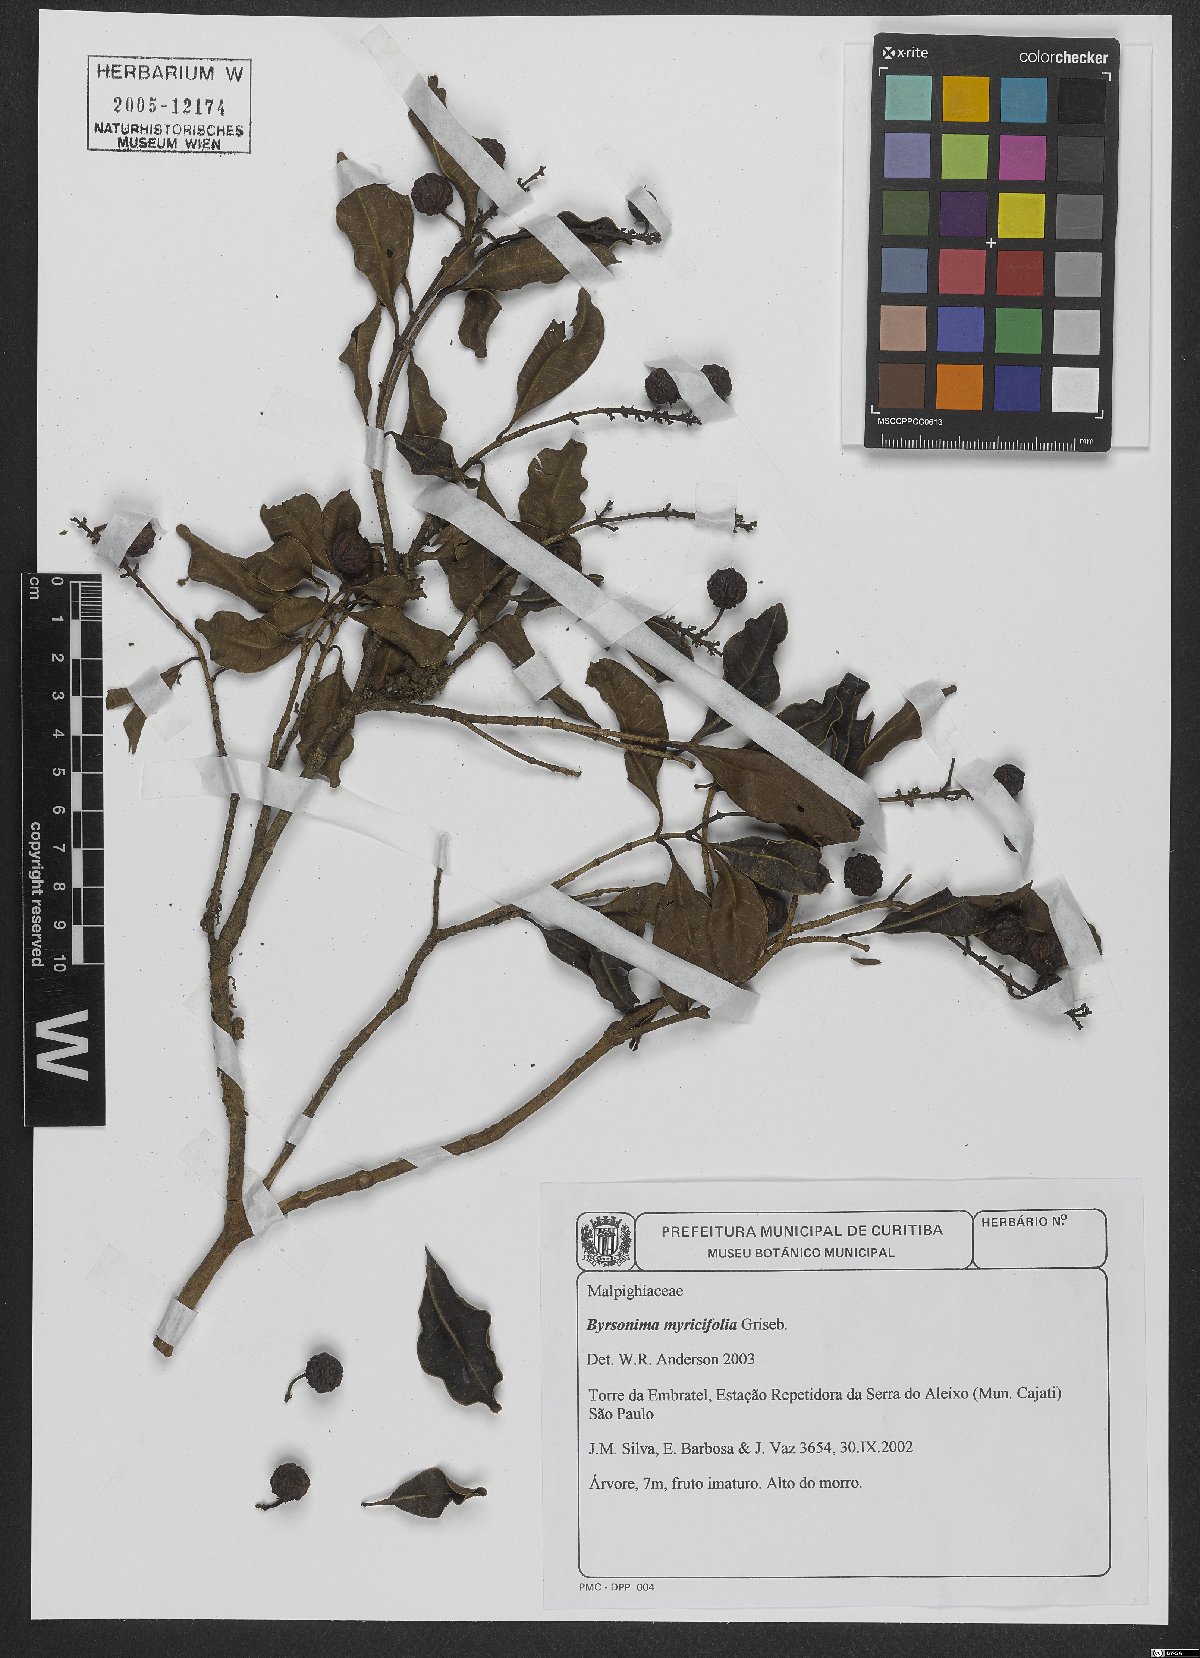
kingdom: Plantae
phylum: Tracheophyta
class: Magnoliopsida
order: Malpighiales
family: Malpighiaceae
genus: Byrsonima
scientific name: Byrsonima myricifolia
